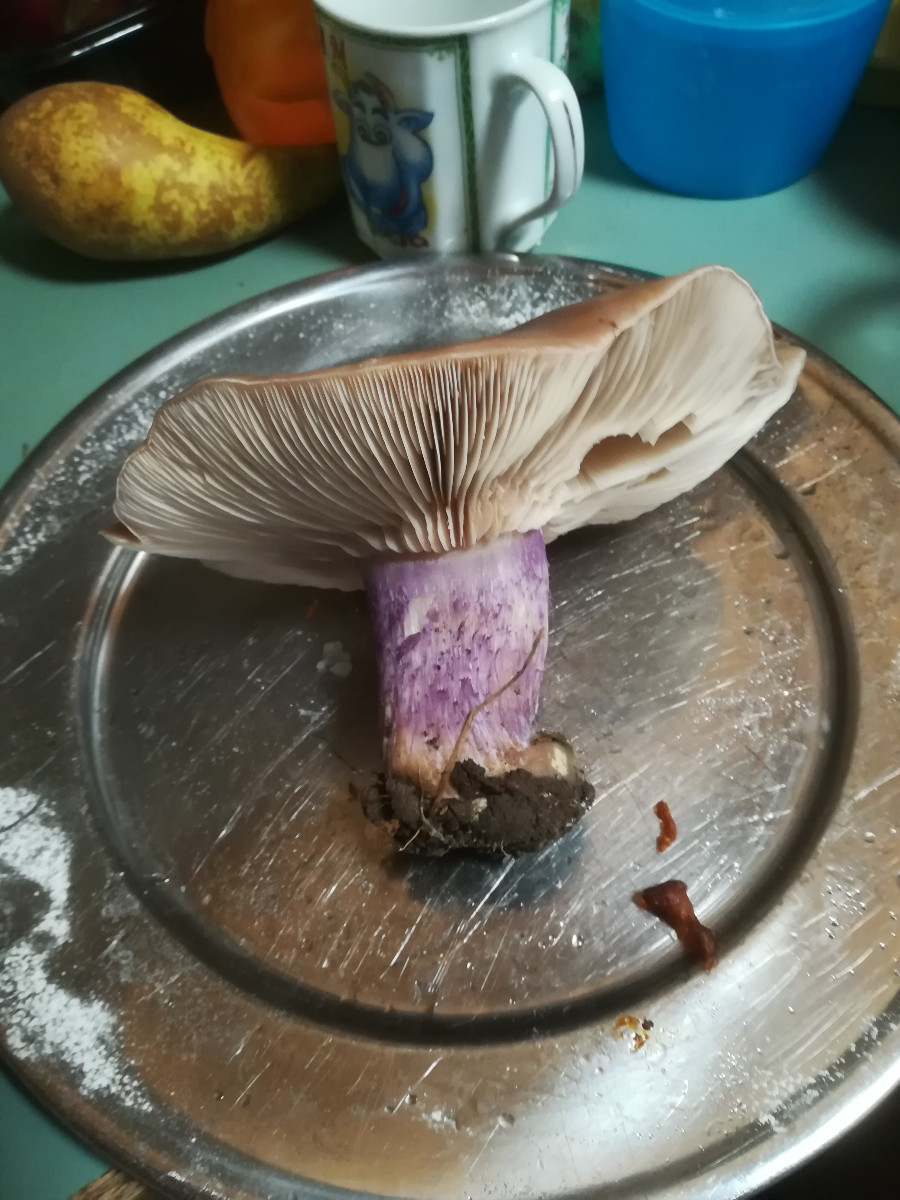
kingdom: Fungi
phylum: Basidiomycota
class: Agaricomycetes
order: Agaricales
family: Tricholomataceae
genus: Lepista
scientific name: Lepista personata
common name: bleg hekseringshat
